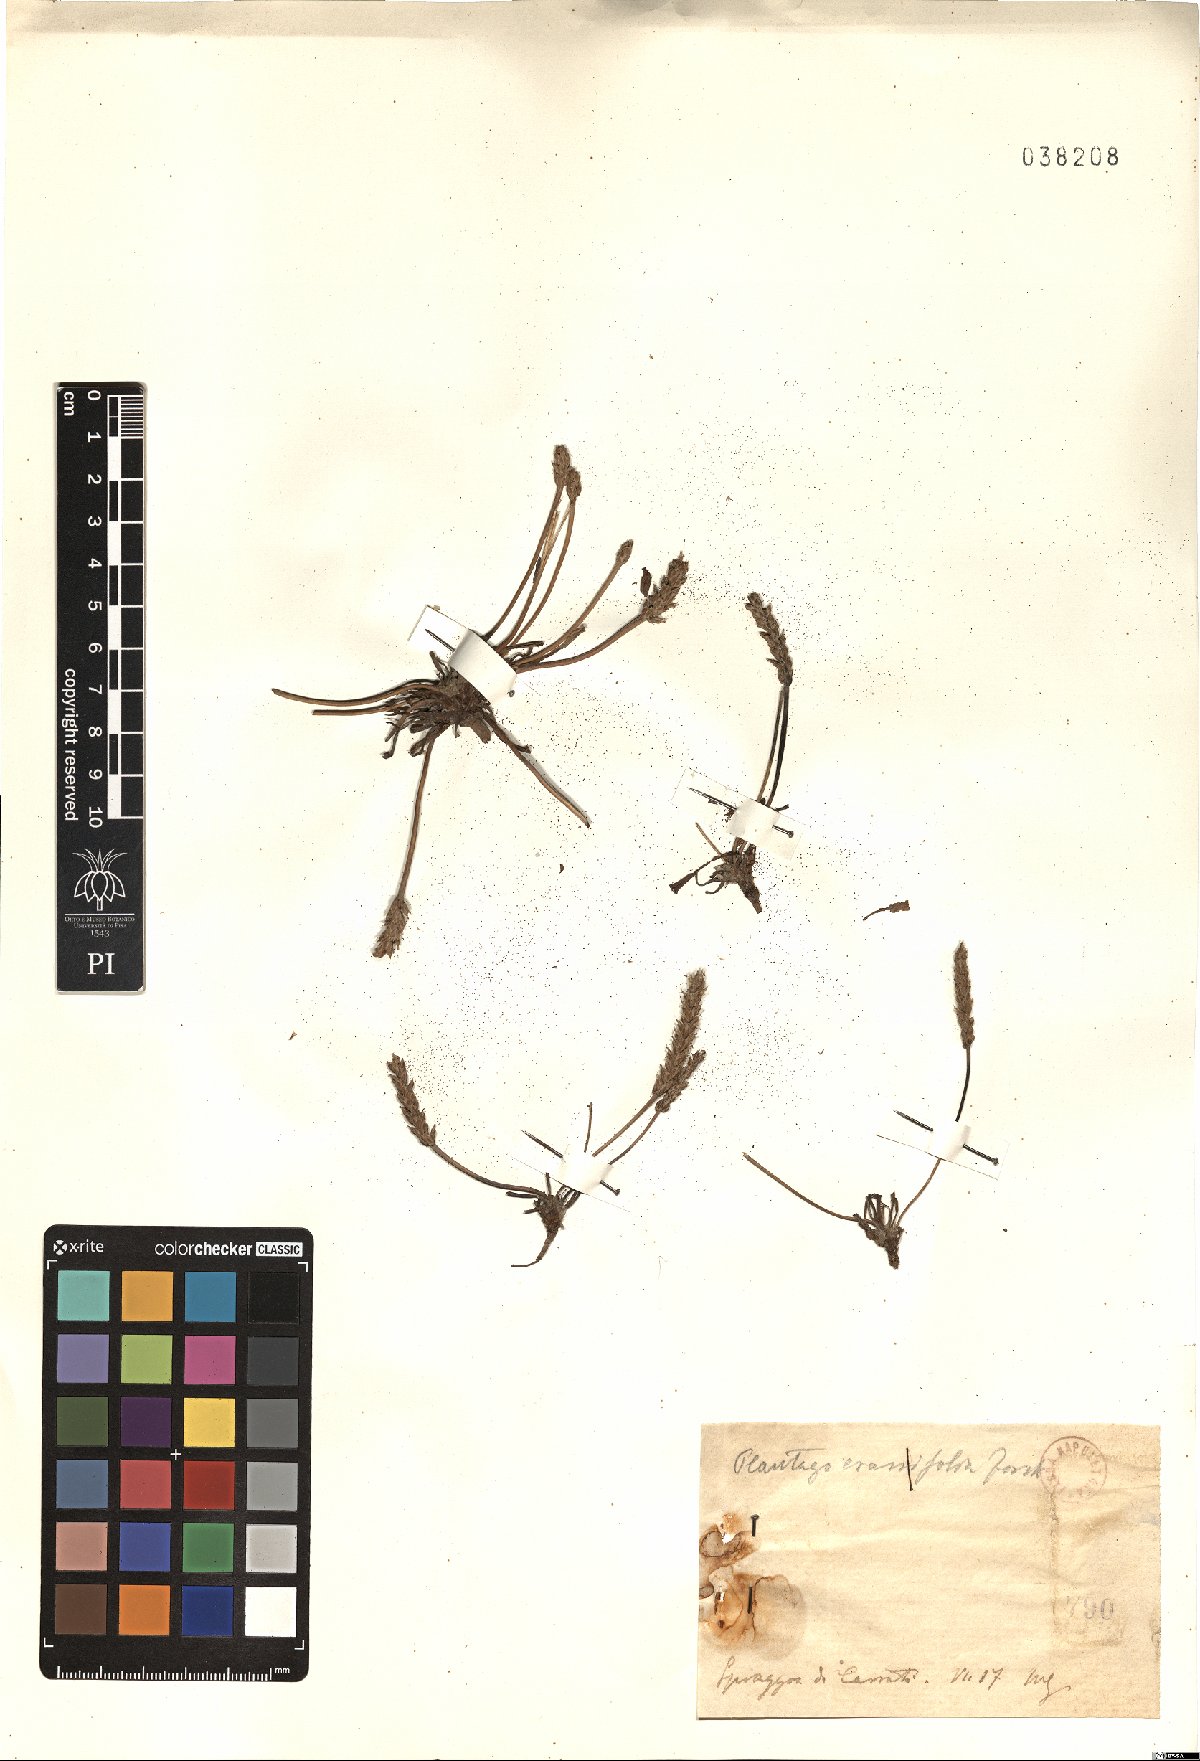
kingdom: Plantae
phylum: Tracheophyta
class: Magnoliopsida
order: Lamiales
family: Plantaginaceae
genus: Plantago
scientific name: Plantago crassifolia
